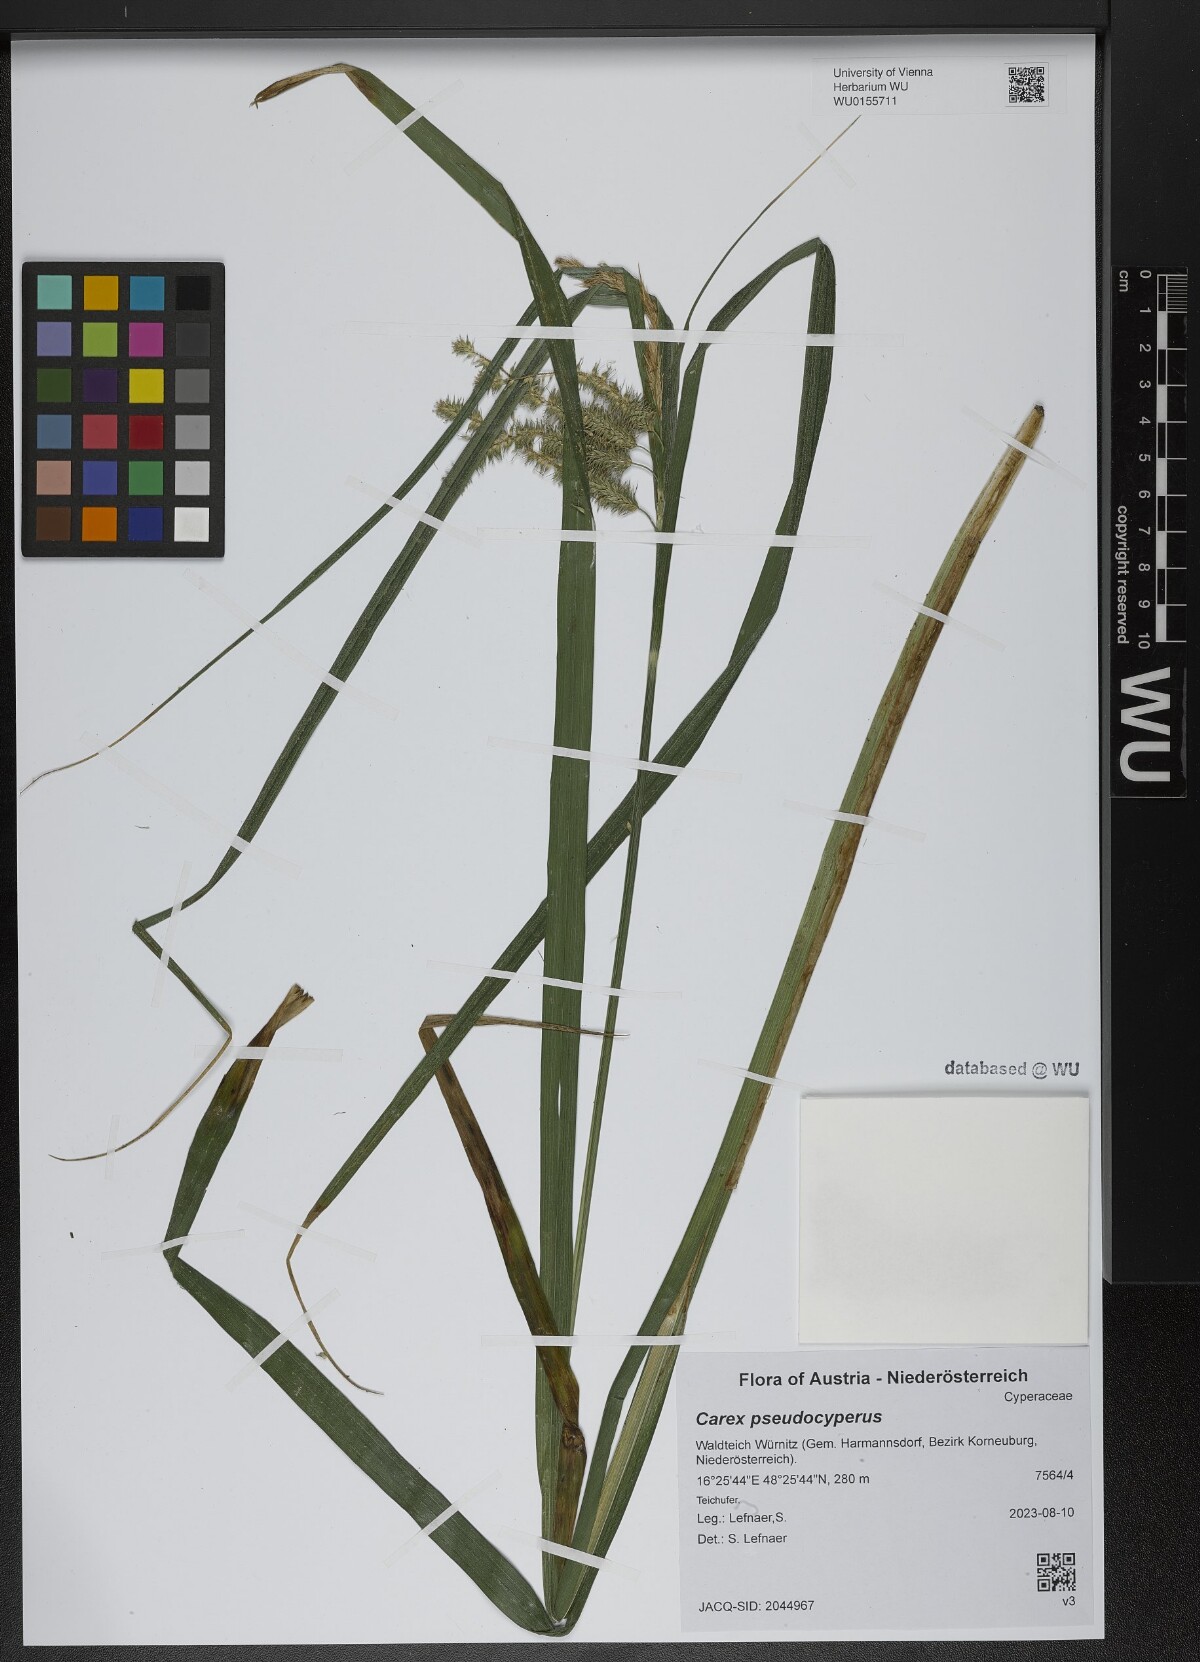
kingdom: Plantae
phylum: Tracheophyta
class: Liliopsida
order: Poales
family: Cyperaceae
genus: Carex
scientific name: Carex pseudocyperus
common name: Cyperus sedge
